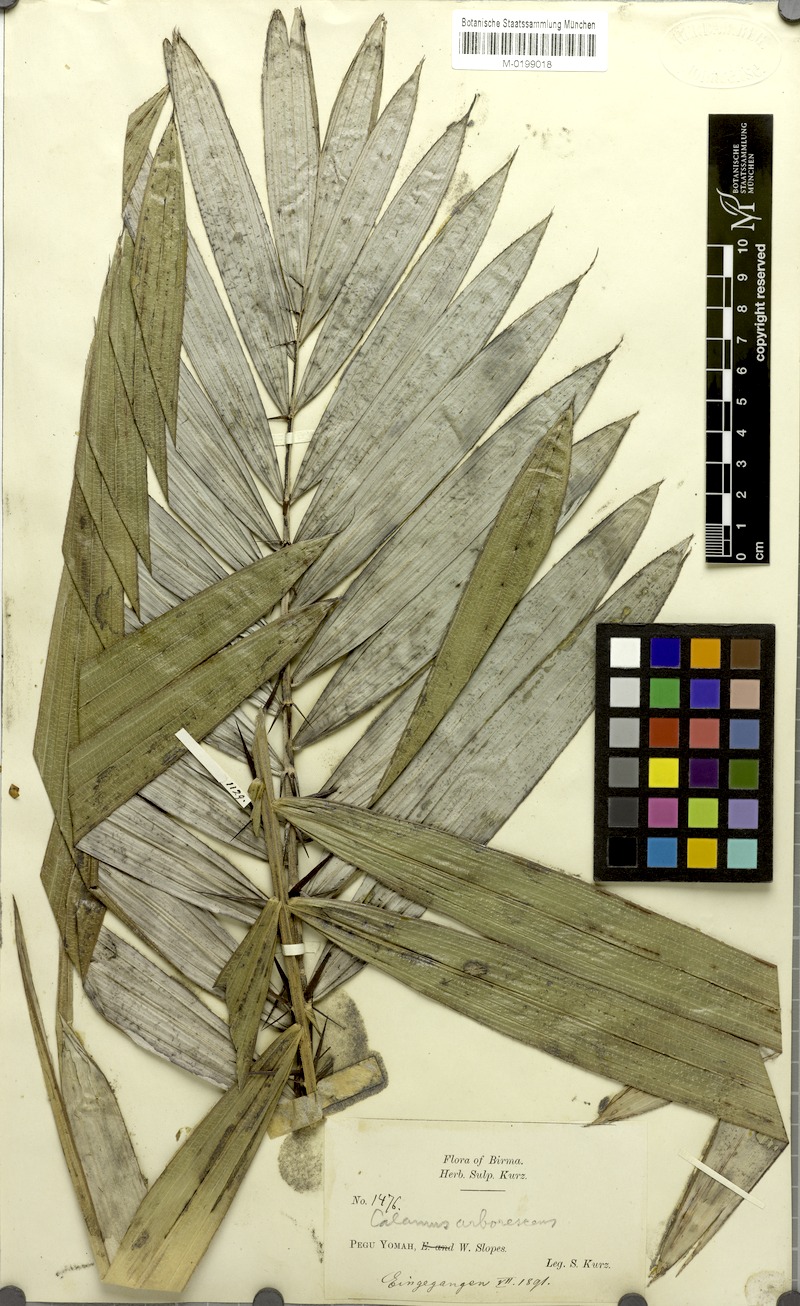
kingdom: Plantae
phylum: Tracheophyta
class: Liliopsida
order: Arecales
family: Arecaceae
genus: Calamus
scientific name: Calamus arborescens
